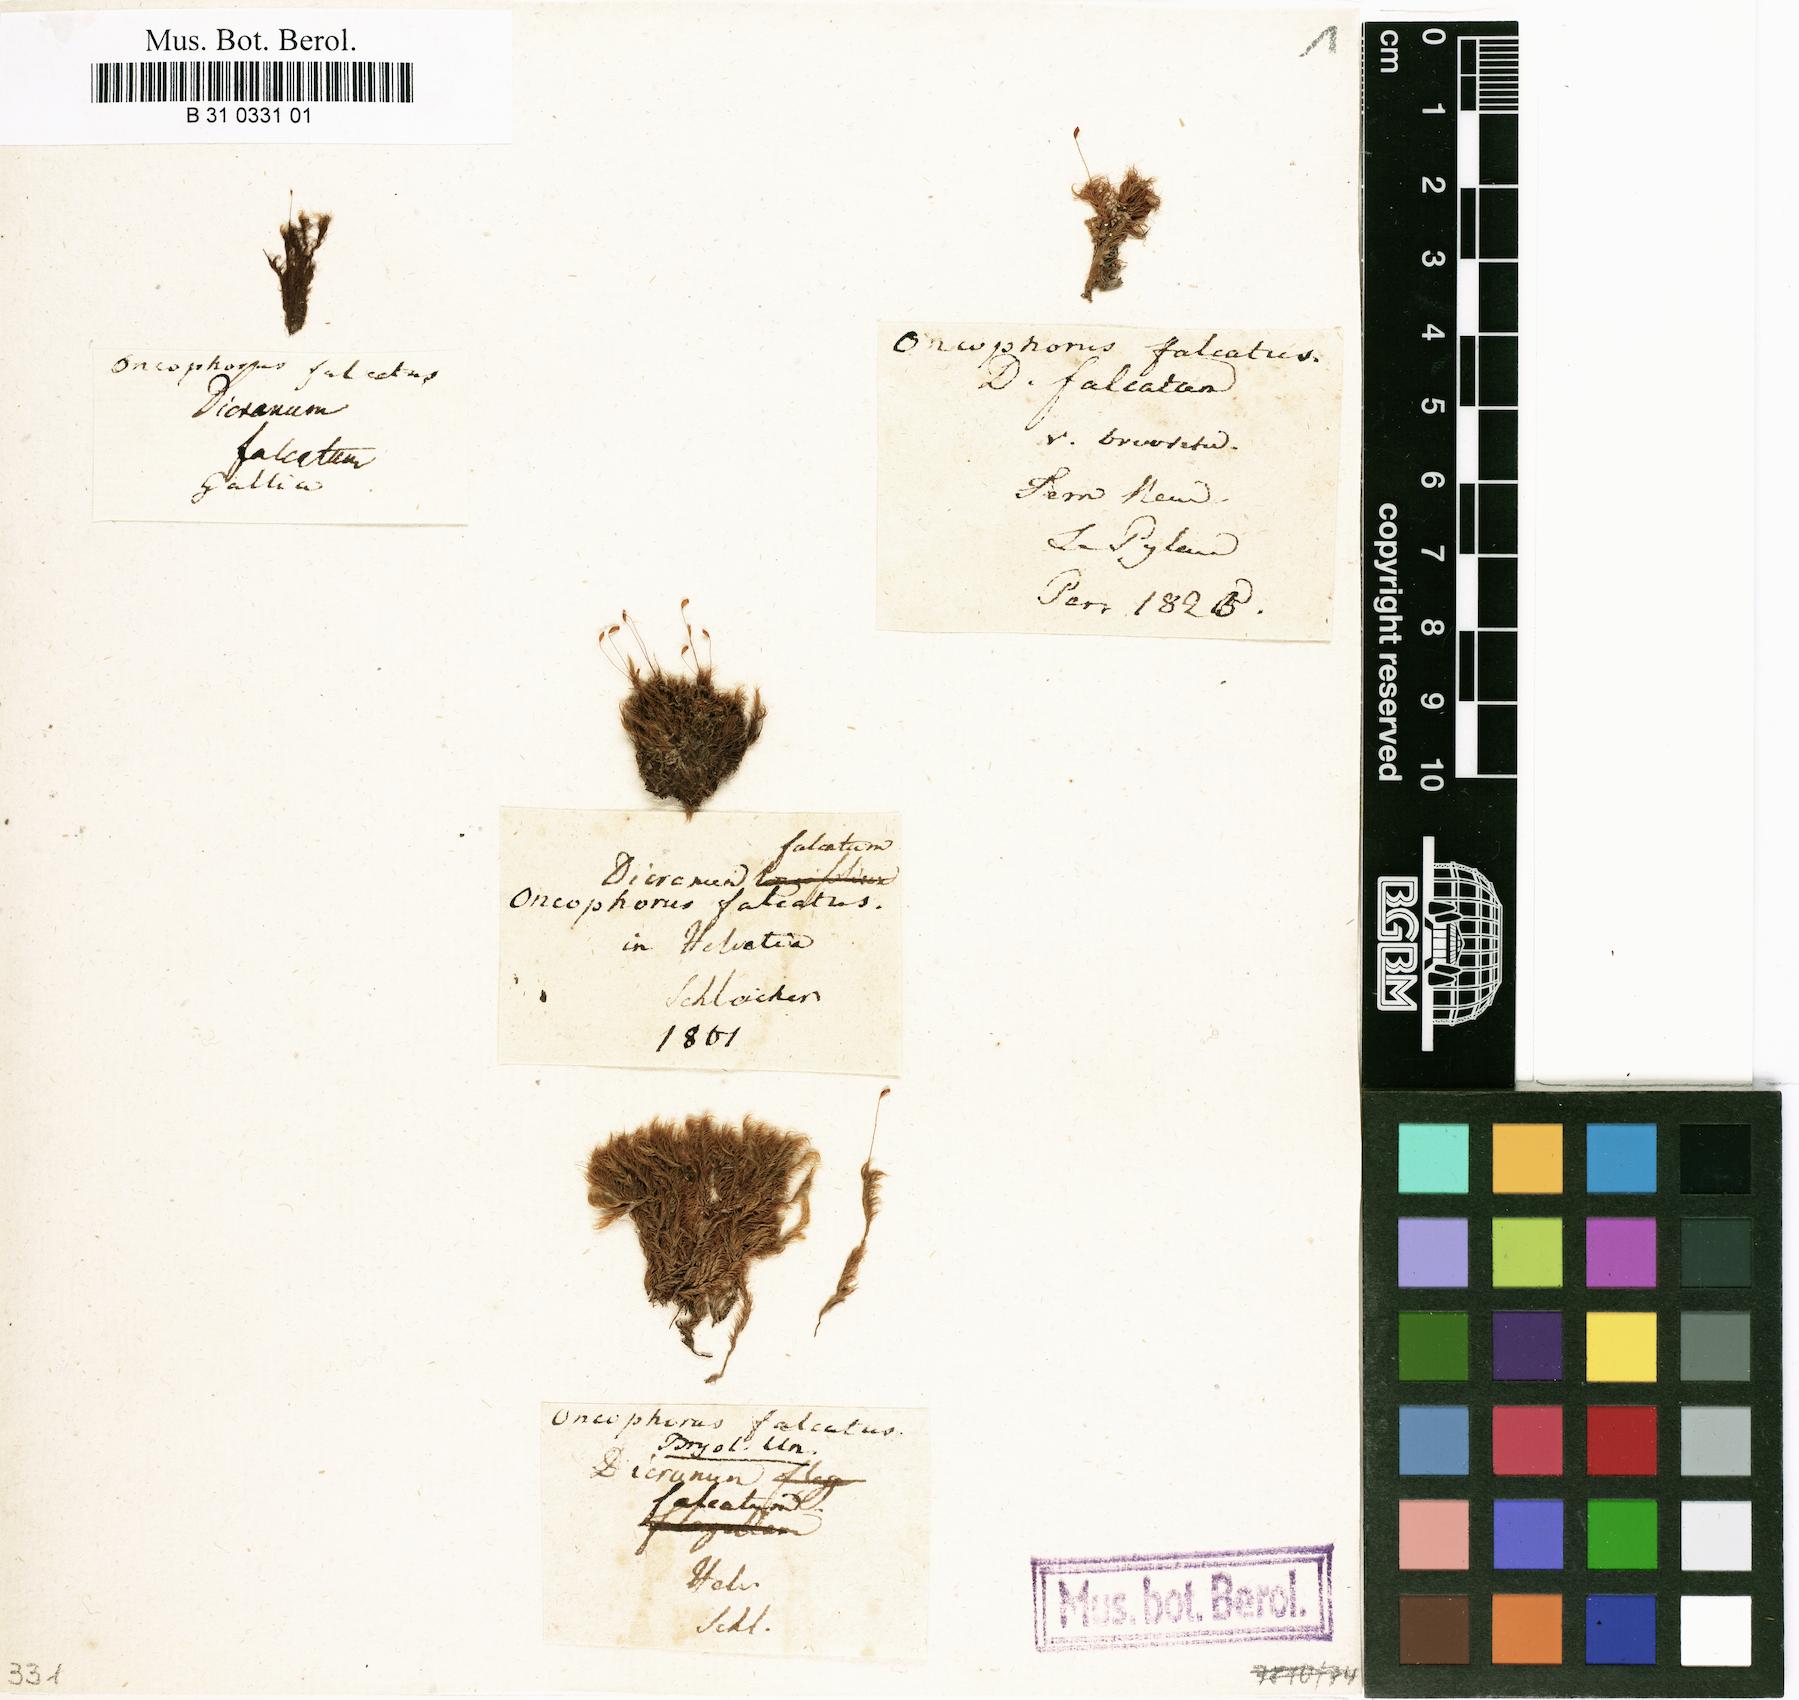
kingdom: Plantae
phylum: Bryophyta
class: Bryopsida
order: Dicranales
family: Rhabdoweisiaceae
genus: Pseudoblindia
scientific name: Pseudoblindia falcata
